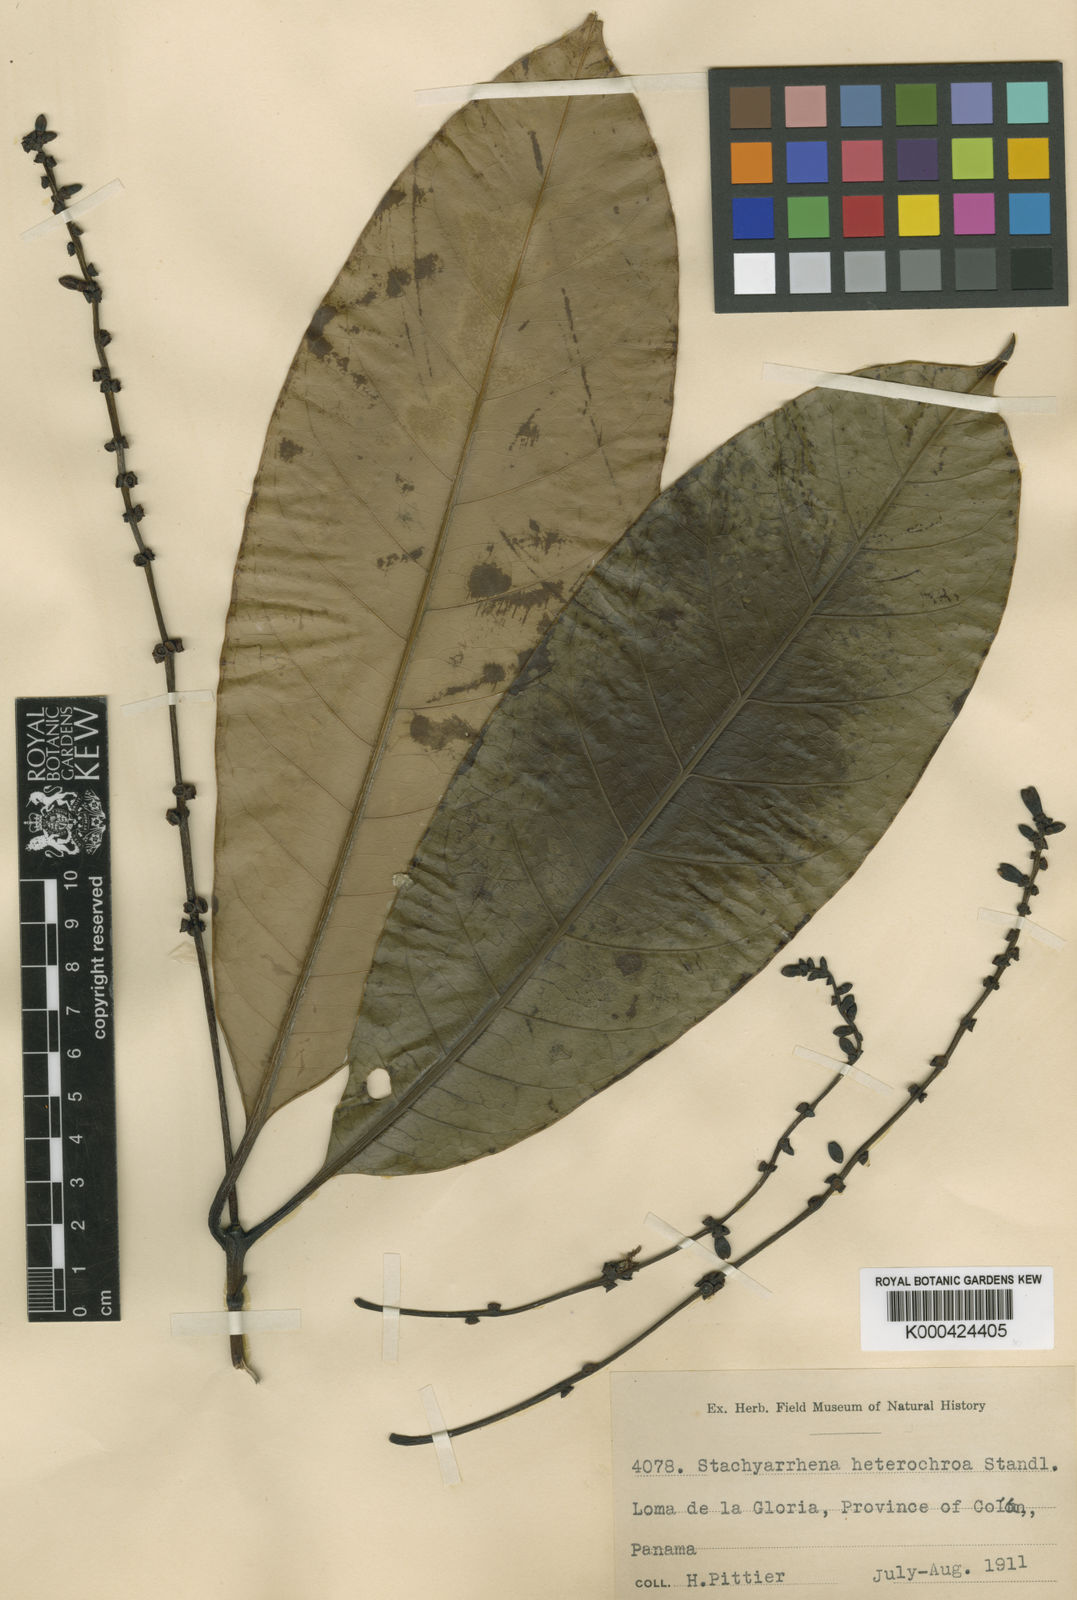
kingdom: Plantae
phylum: Tracheophyta
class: Magnoliopsida
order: Gentianales
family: Rubiaceae
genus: Stachyarrhena
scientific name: Stachyarrhena heterochroa
